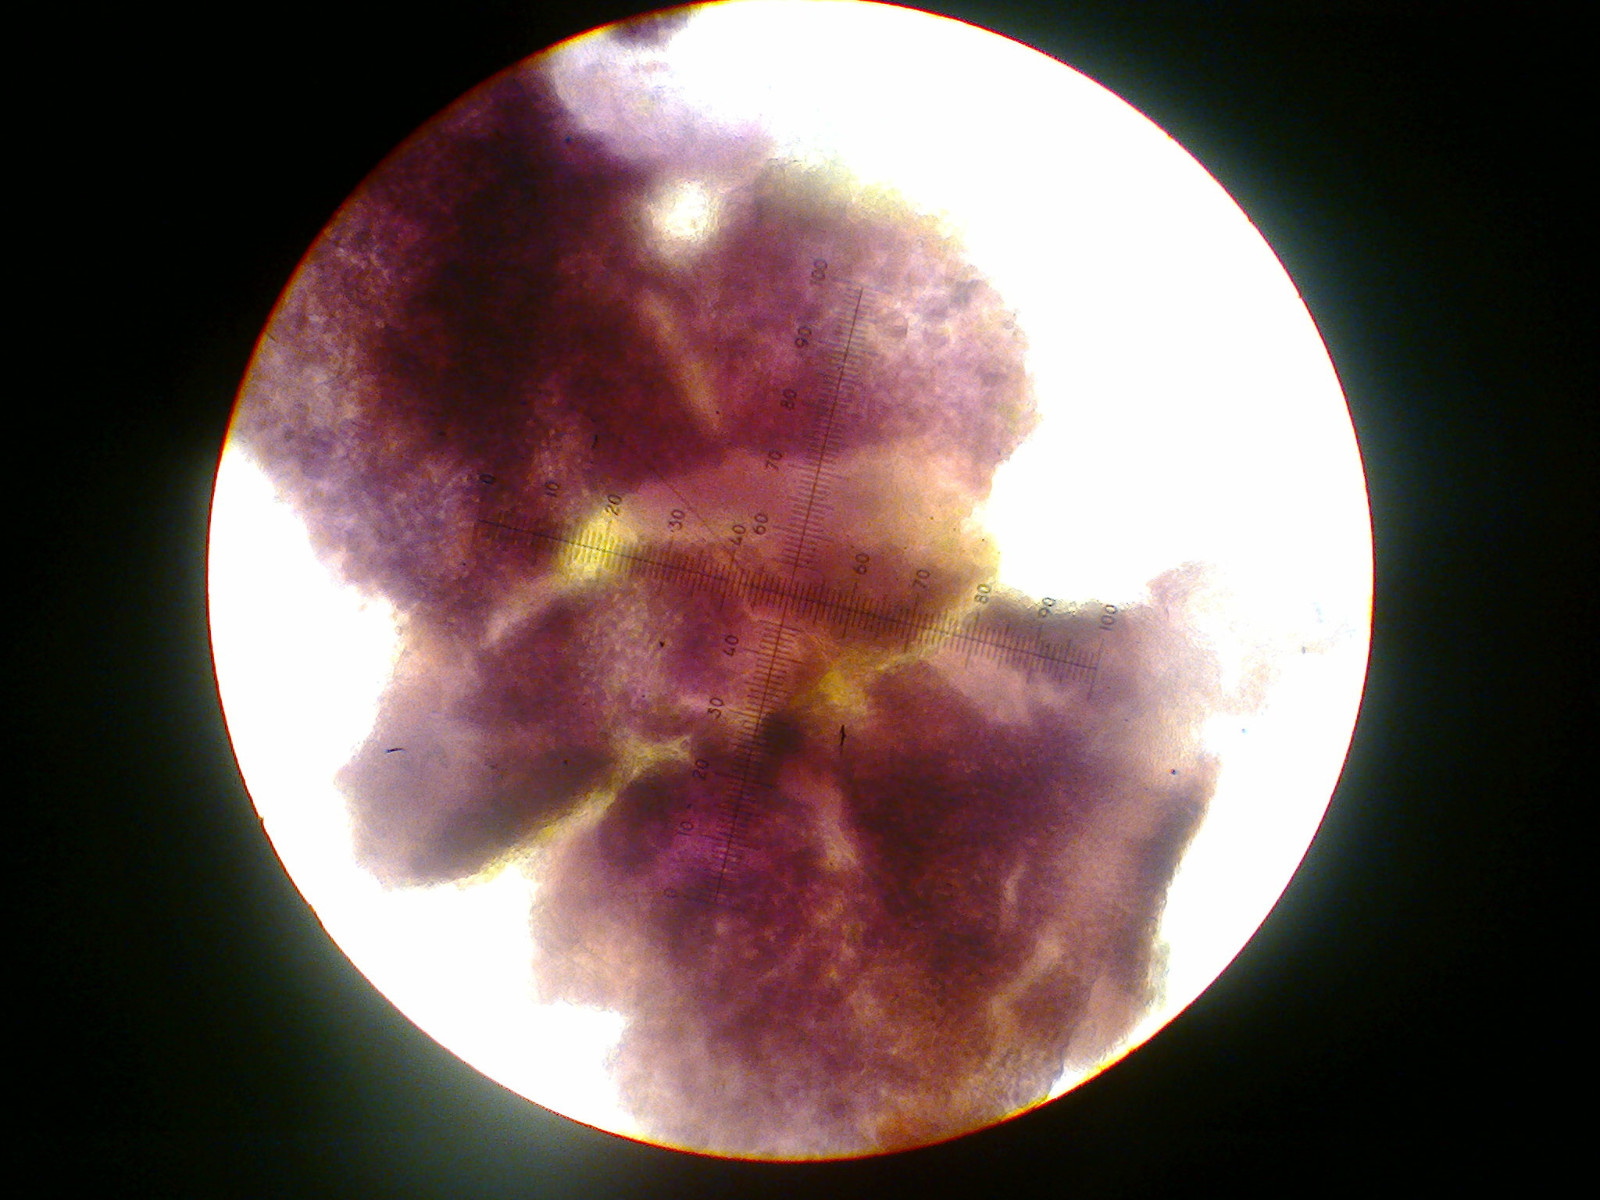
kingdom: Fungi
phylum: Ascomycota
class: Lecanoromycetes
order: Lecanorales
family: Byssolomataceae
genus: Micarea
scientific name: Micarea misella
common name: liden kornlav
